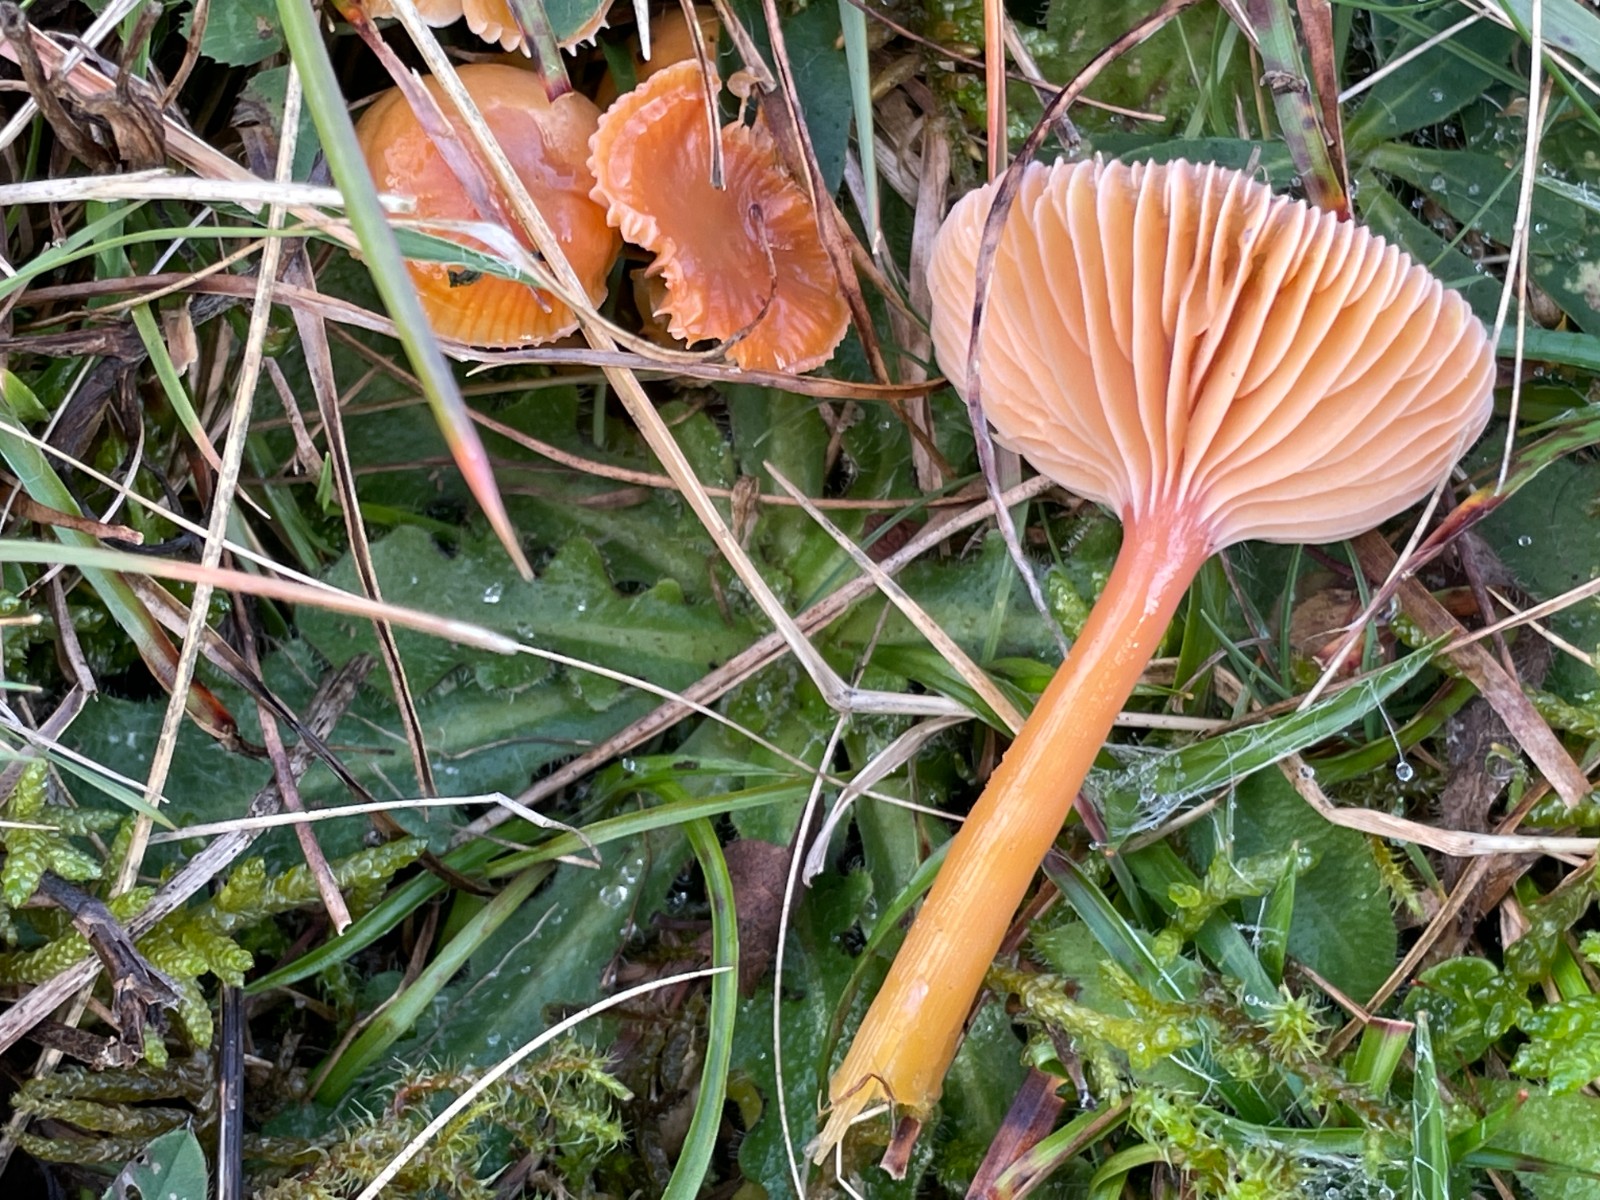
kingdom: Fungi
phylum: Basidiomycota
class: Agaricomycetes
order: Agaricales
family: Hygrophoraceae
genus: Gliophorus
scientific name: Gliophorus laetus
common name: brusk-vokshat
